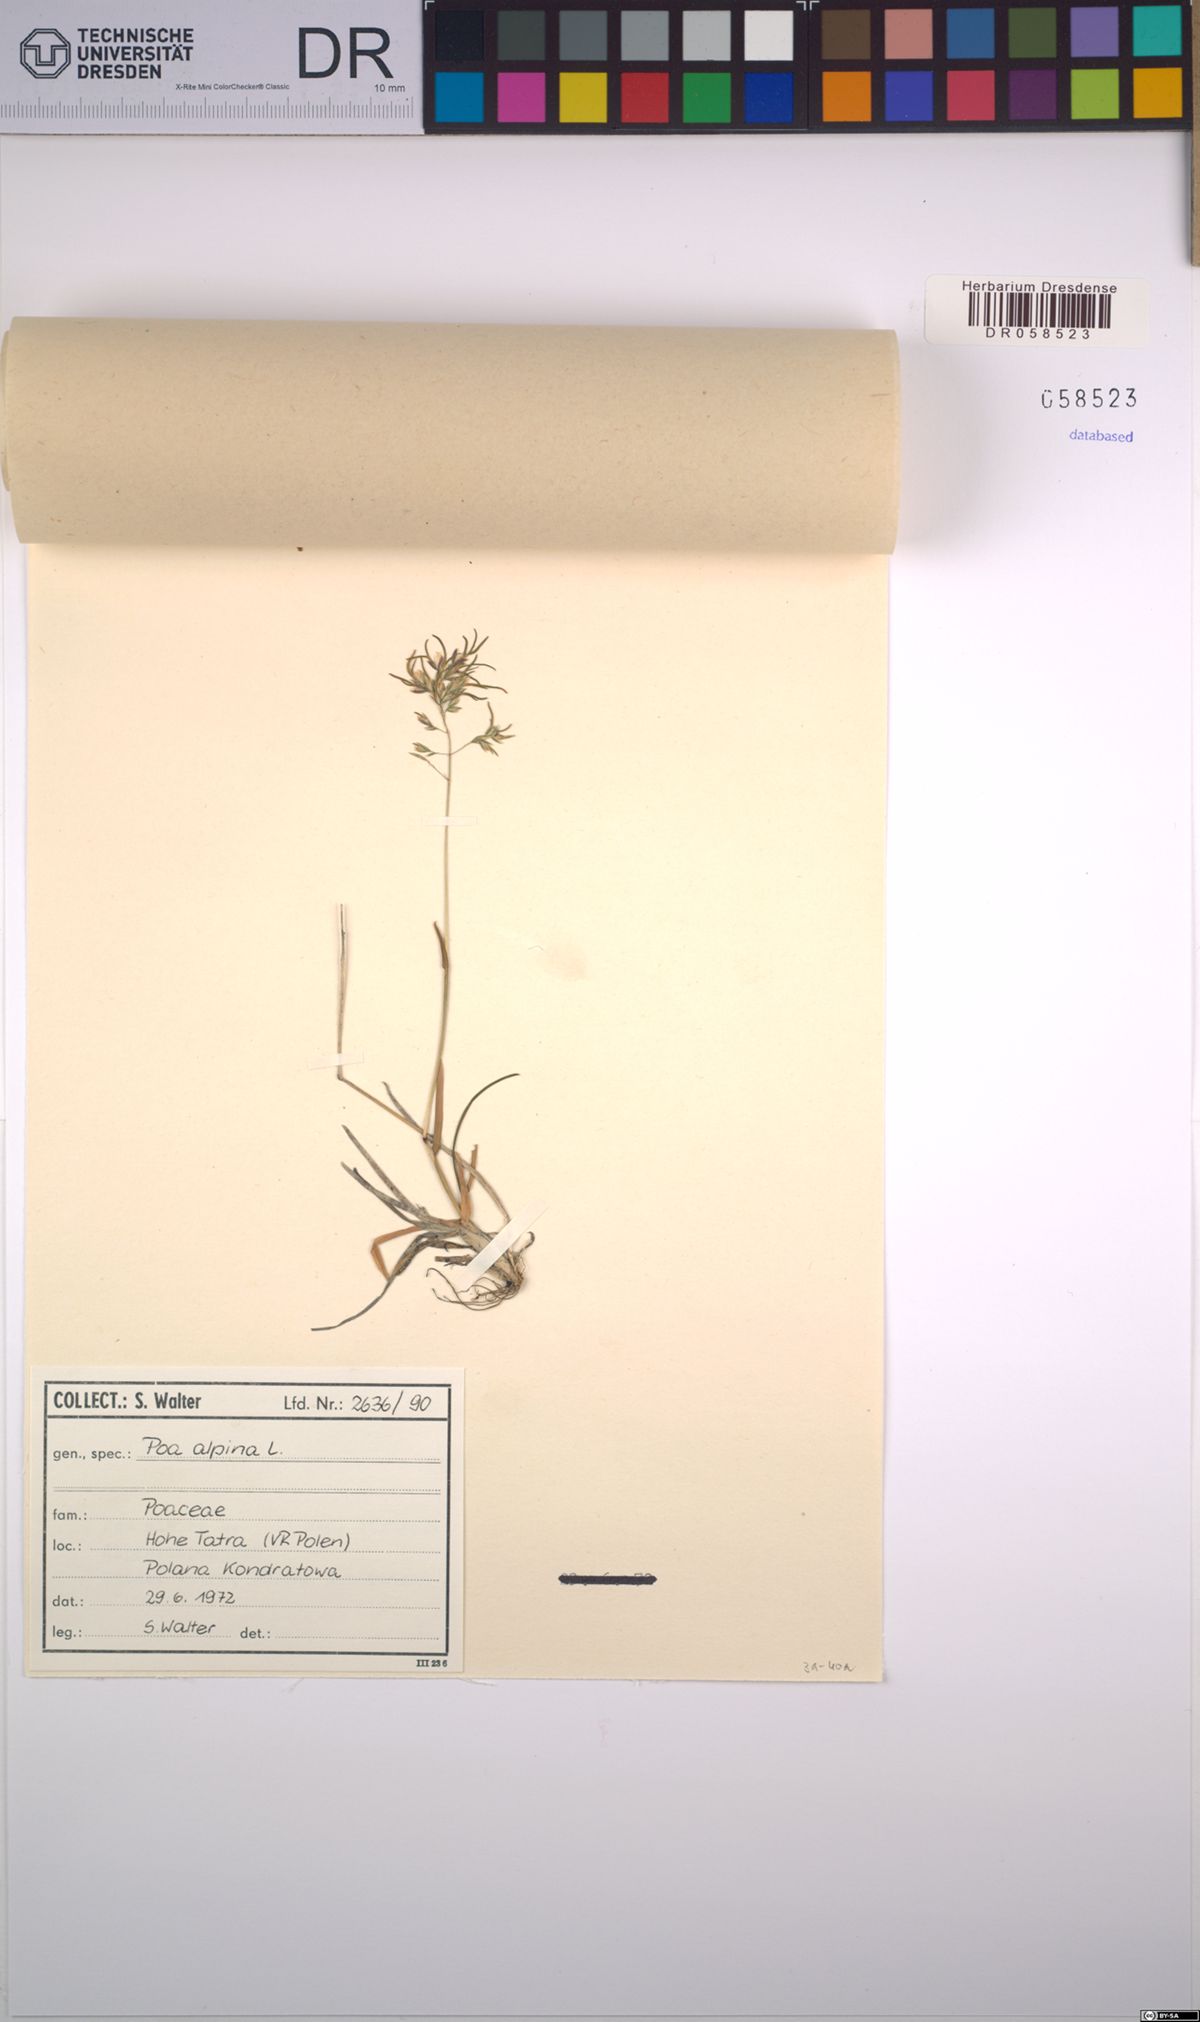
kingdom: Plantae
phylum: Tracheophyta
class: Liliopsida
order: Poales
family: Poaceae
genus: Poa
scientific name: Poa alpina
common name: Alpine bluegrass
